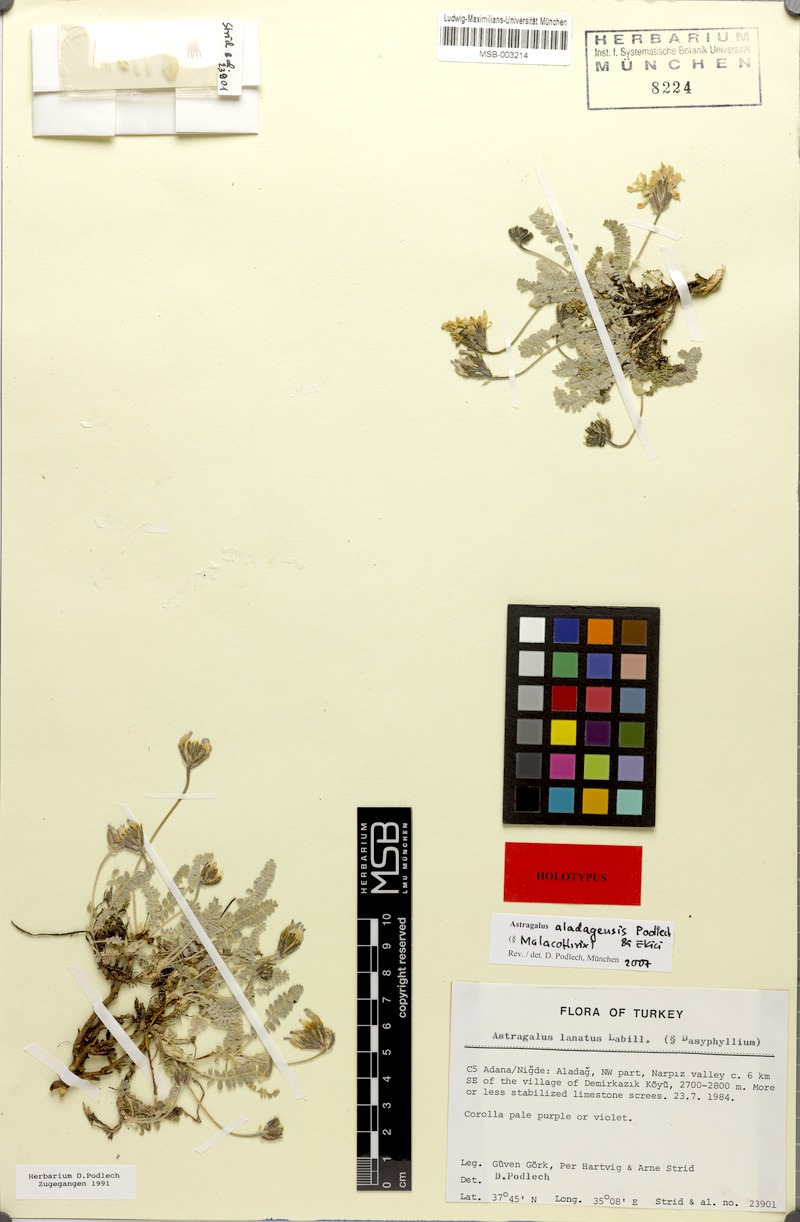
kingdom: Plantae
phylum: Tracheophyta
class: Magnoliopsida
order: Fabales
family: Fabaceae
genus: Astragalus
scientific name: Astragalus aladagensis
